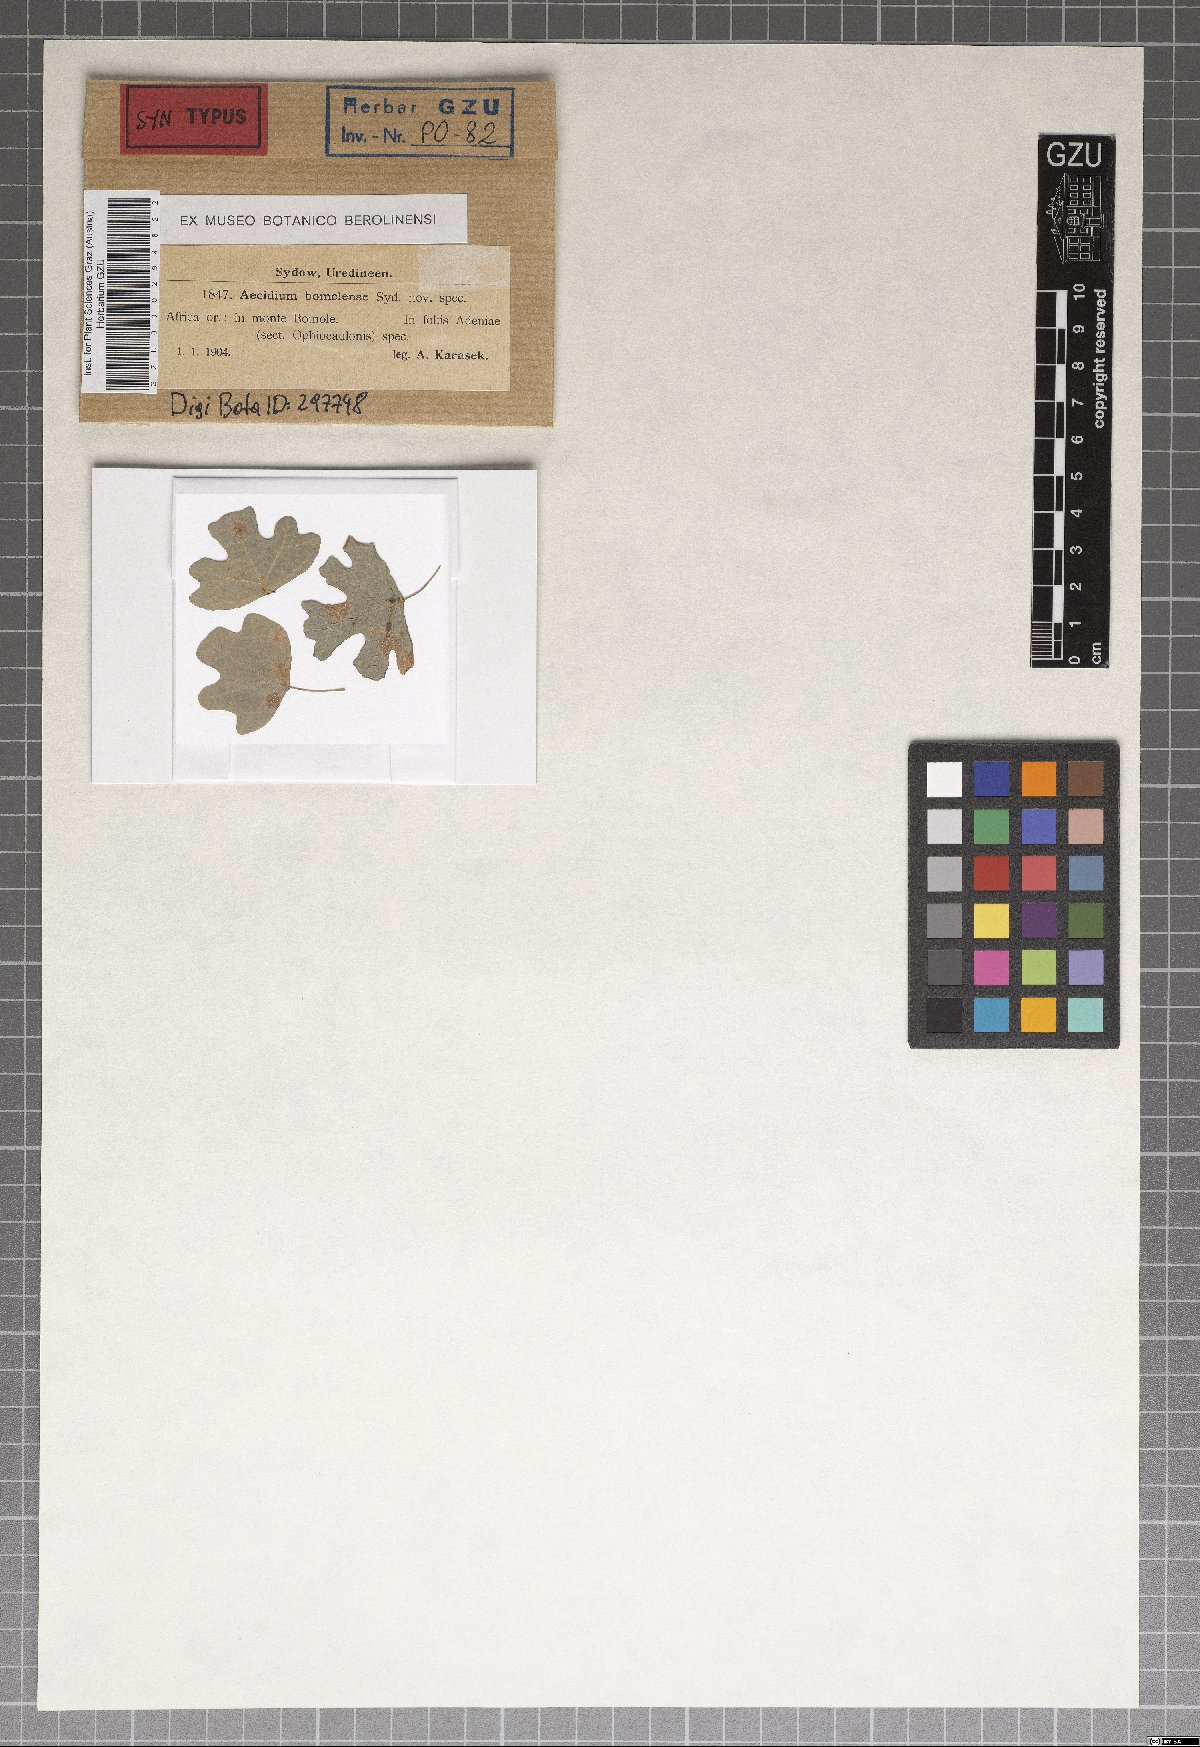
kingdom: Fungi
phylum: Basidiomycota
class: Pucciniomycetes
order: Pucciniales
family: Pucciniaceae
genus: Aecidium
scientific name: Aecidium bomolense
